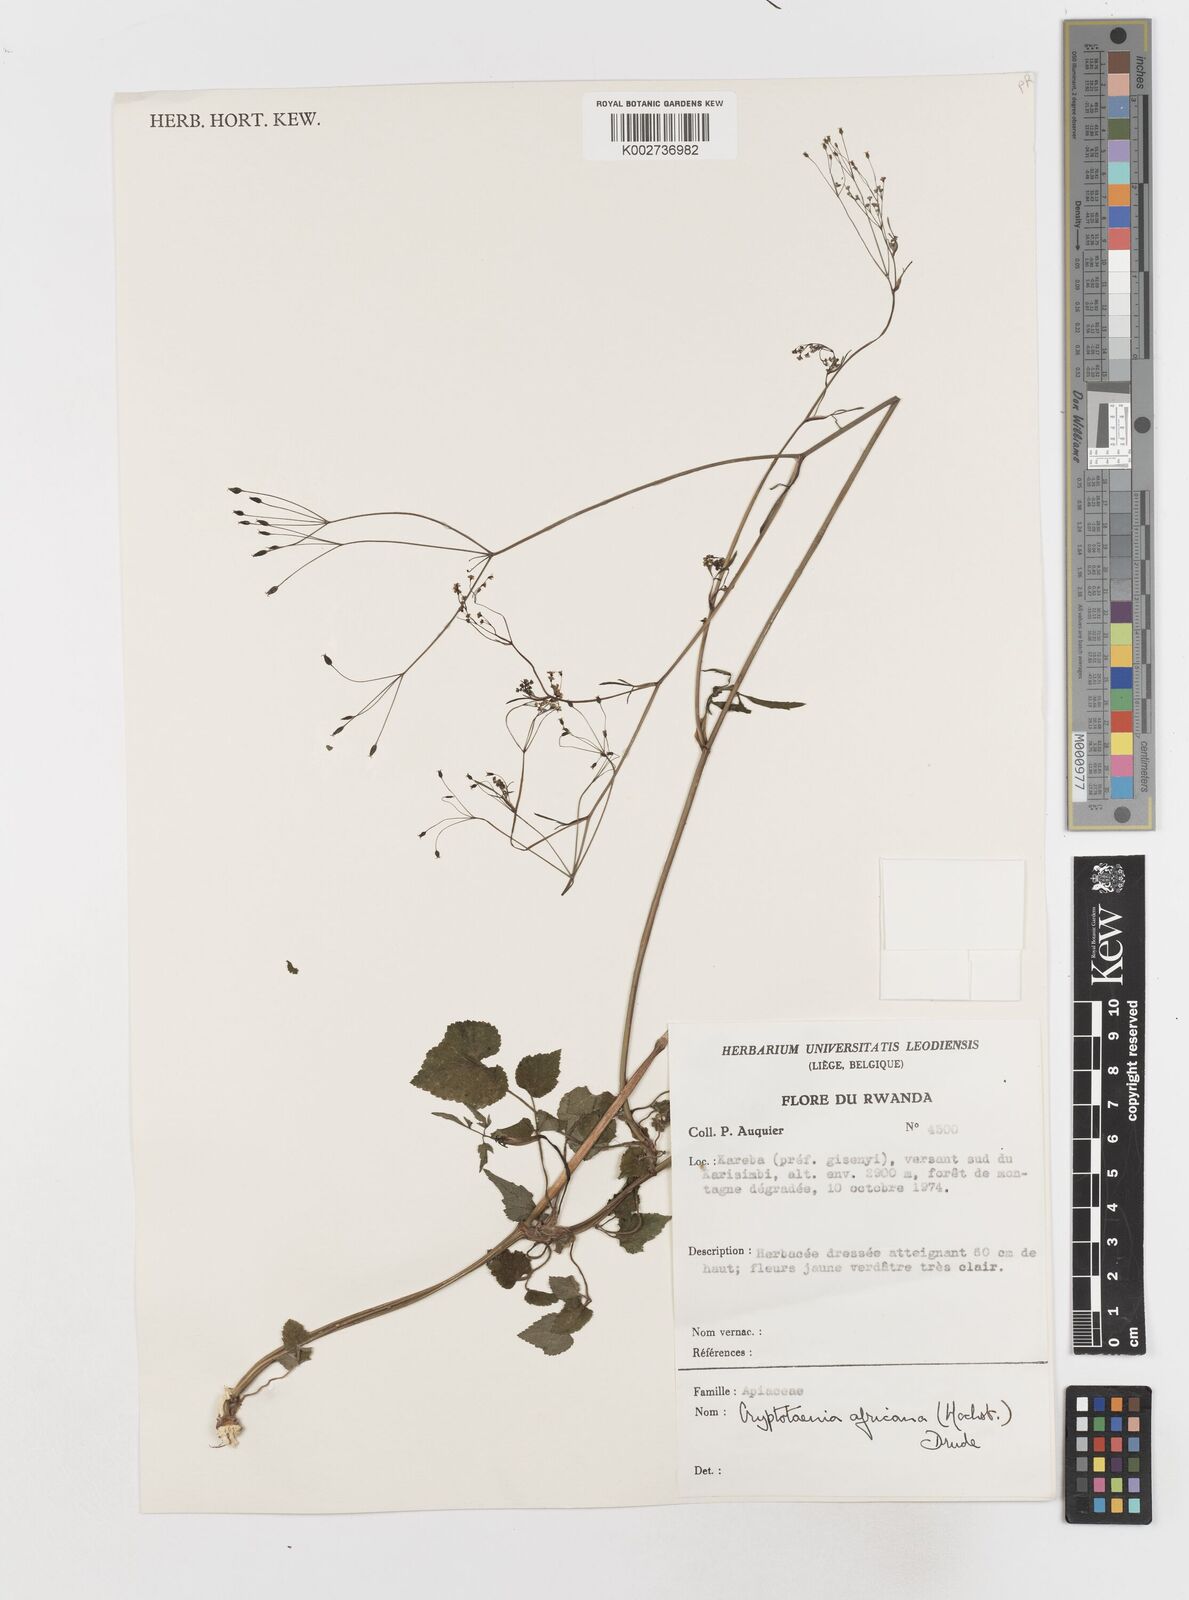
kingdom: Plantae
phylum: Tracheophyta
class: Magnoliopsida
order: Apiales
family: Apiaceae
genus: Cryptotaenia
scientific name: Cryptotaenia africana
